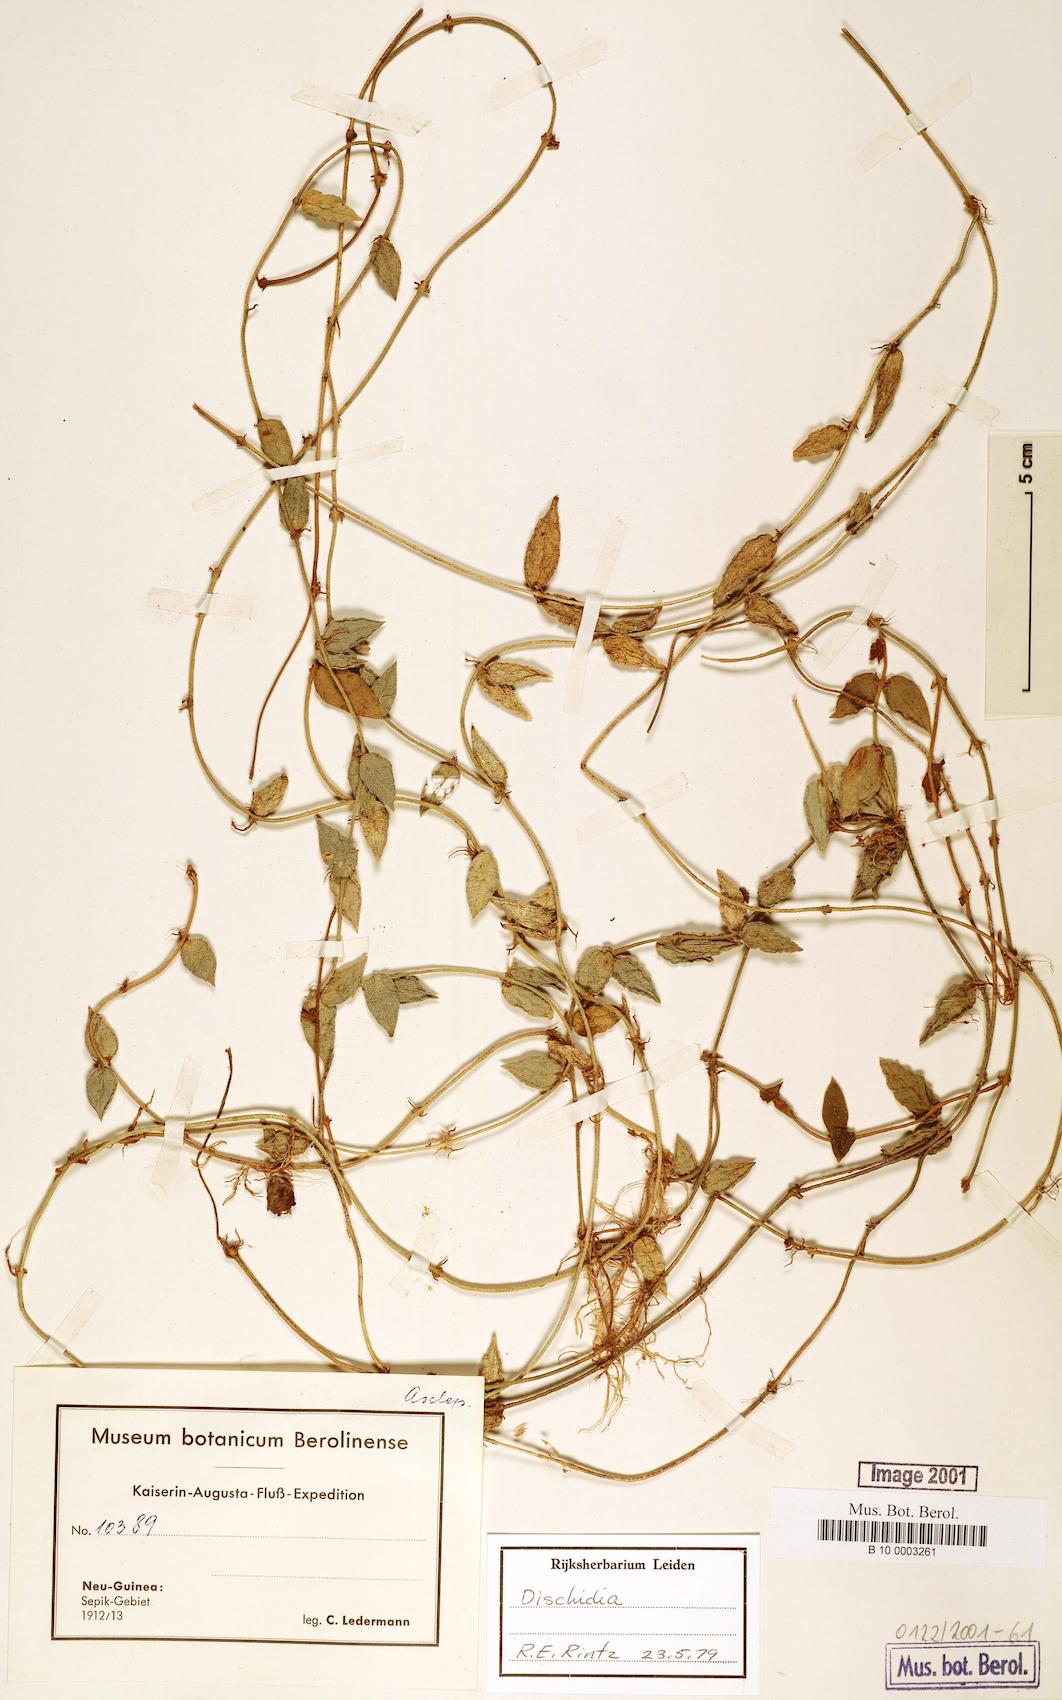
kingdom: Plantae
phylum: Tracheophyta
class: Magnoliopsida
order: Gentianales
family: Apocynaceae
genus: Dischidia
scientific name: Dischidia
